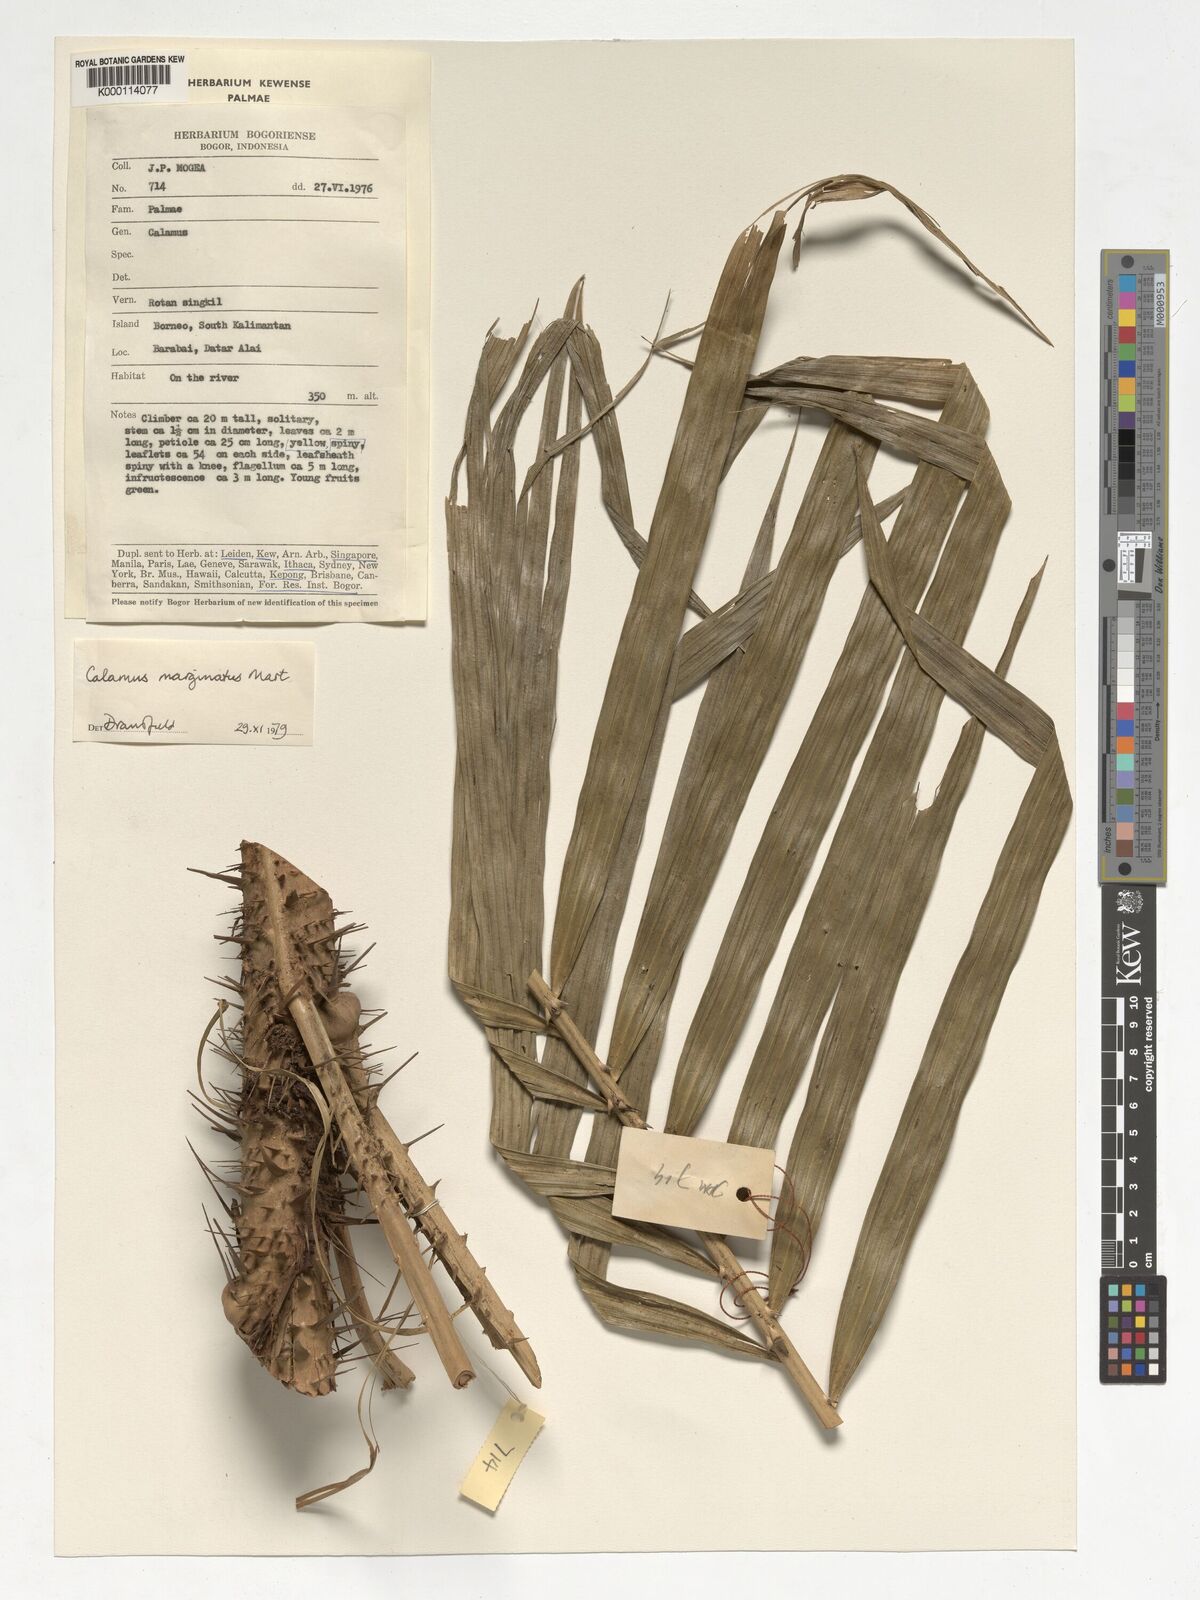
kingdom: Plantae
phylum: Tracheophyta
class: Liliopsida
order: Arecales
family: Arecaceae
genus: Calamus
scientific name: Calamus
